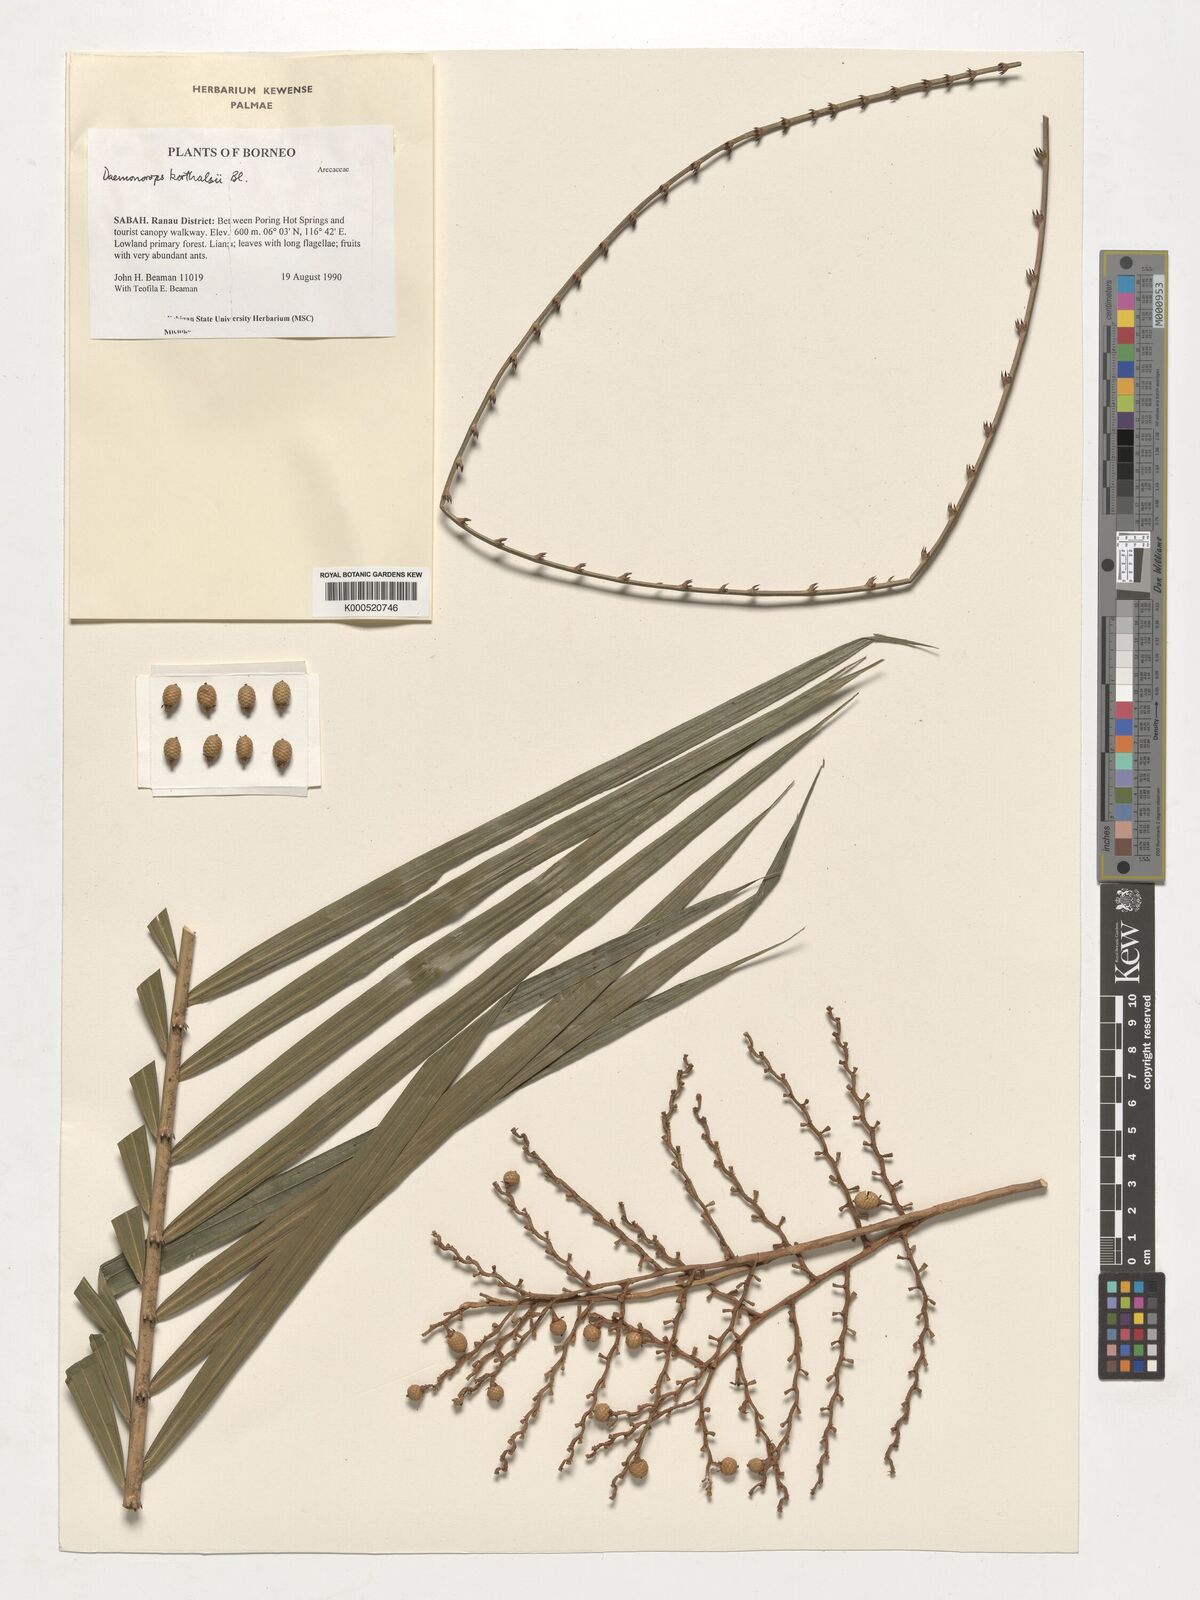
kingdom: Plantae
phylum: Tracheophyta
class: Liliopsida
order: Arecales
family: Arecaceae
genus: Calamus
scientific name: Calamus hirsutus
